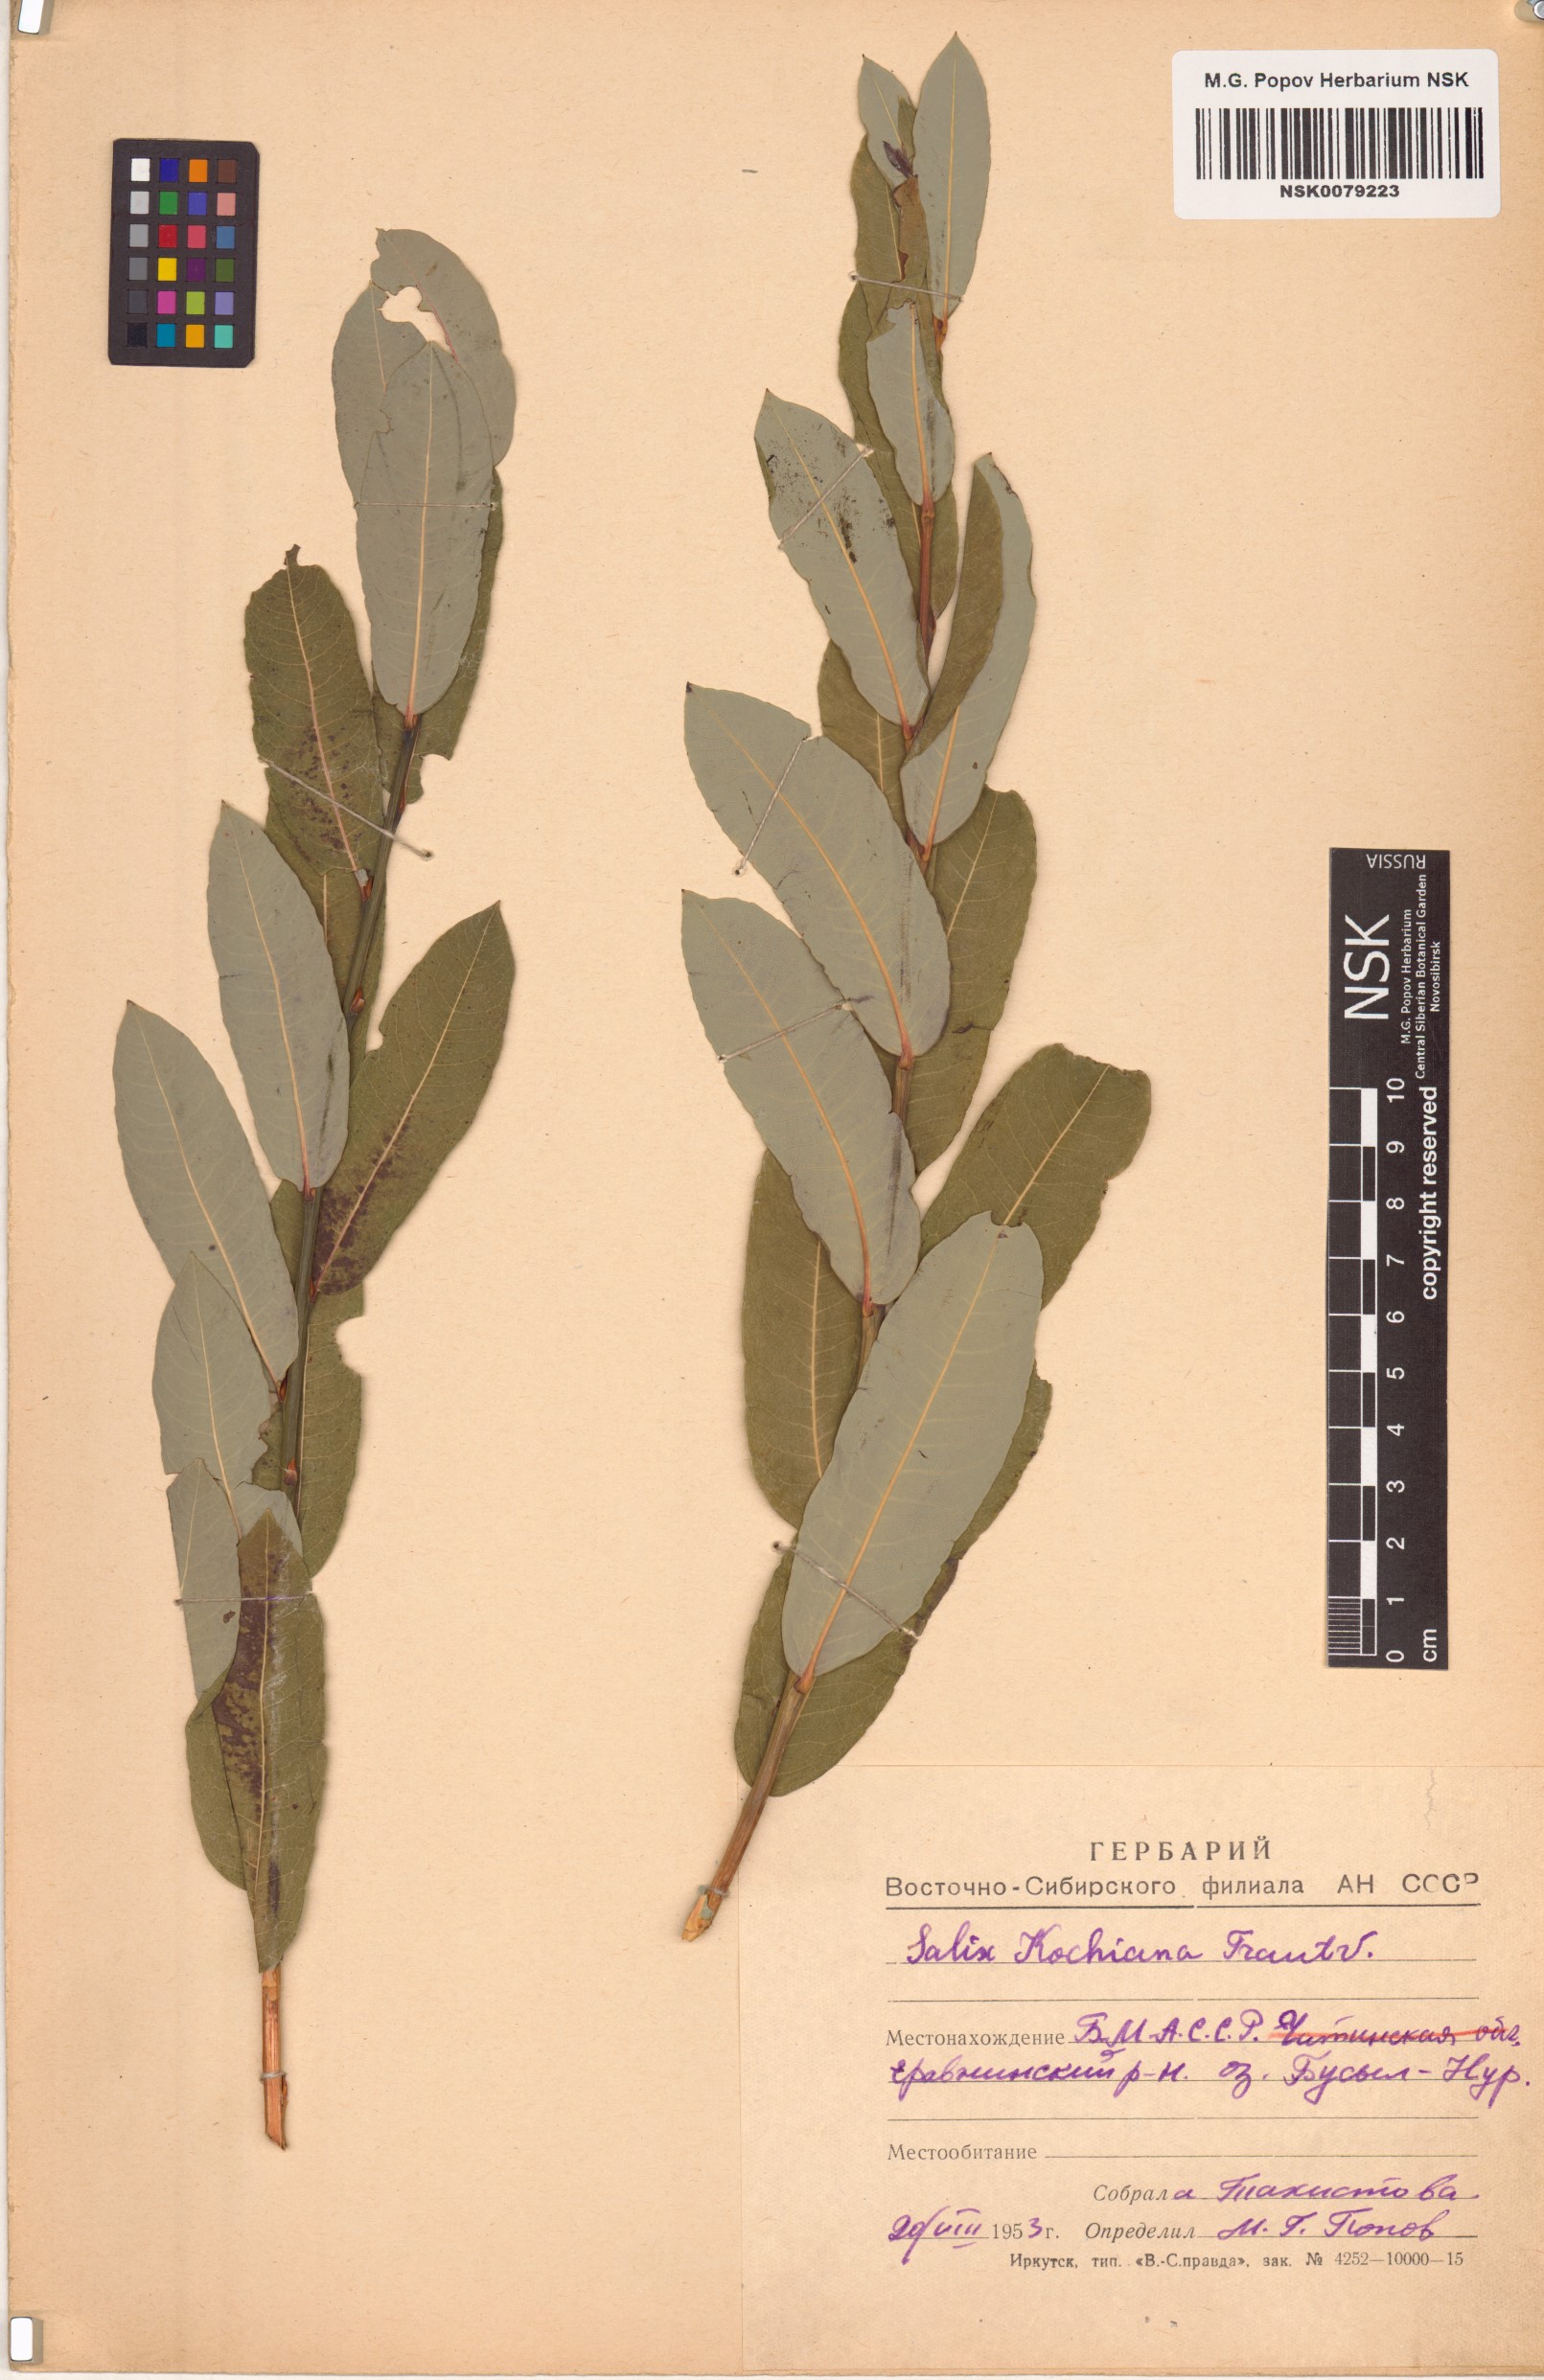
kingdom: Plantae
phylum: Tracheophyta
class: Magnoliopsida
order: Malpighiales
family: Salicaceae
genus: Salix
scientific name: Salix kochiana
